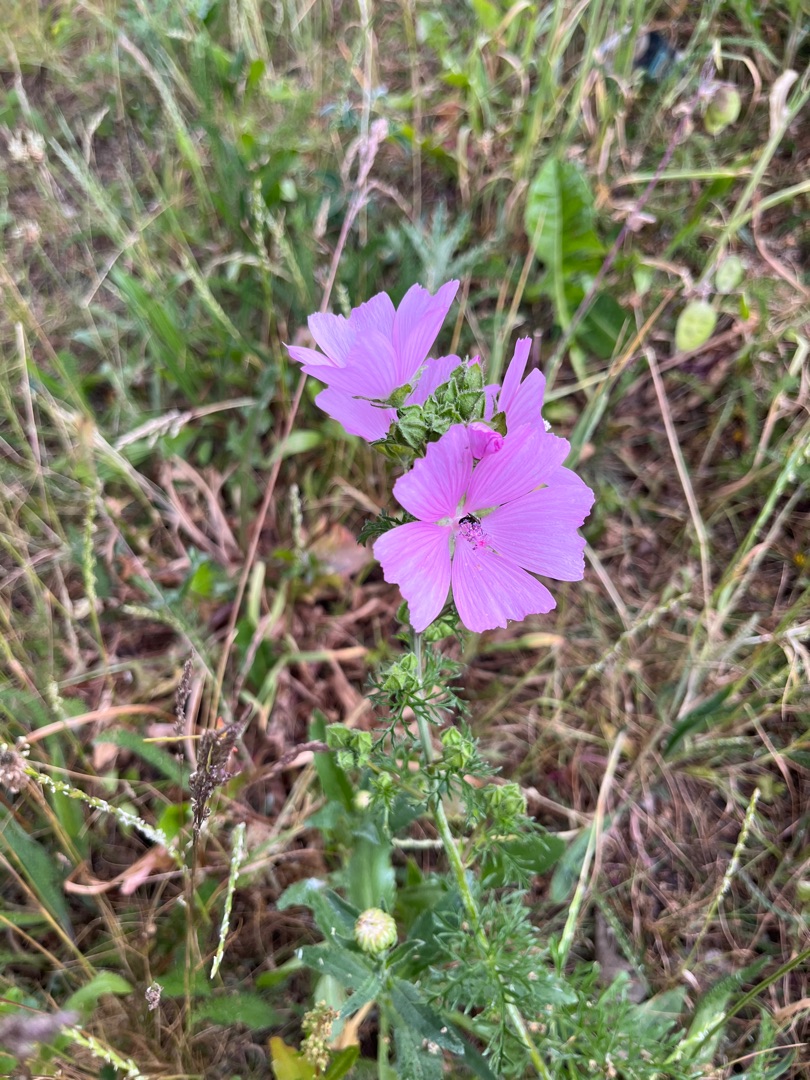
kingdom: Plantae
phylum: Tracheophyta
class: Magnoliopsida
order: Malvales
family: Malvaceae
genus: Malva
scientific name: Malva moschata
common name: Moskus-katost
